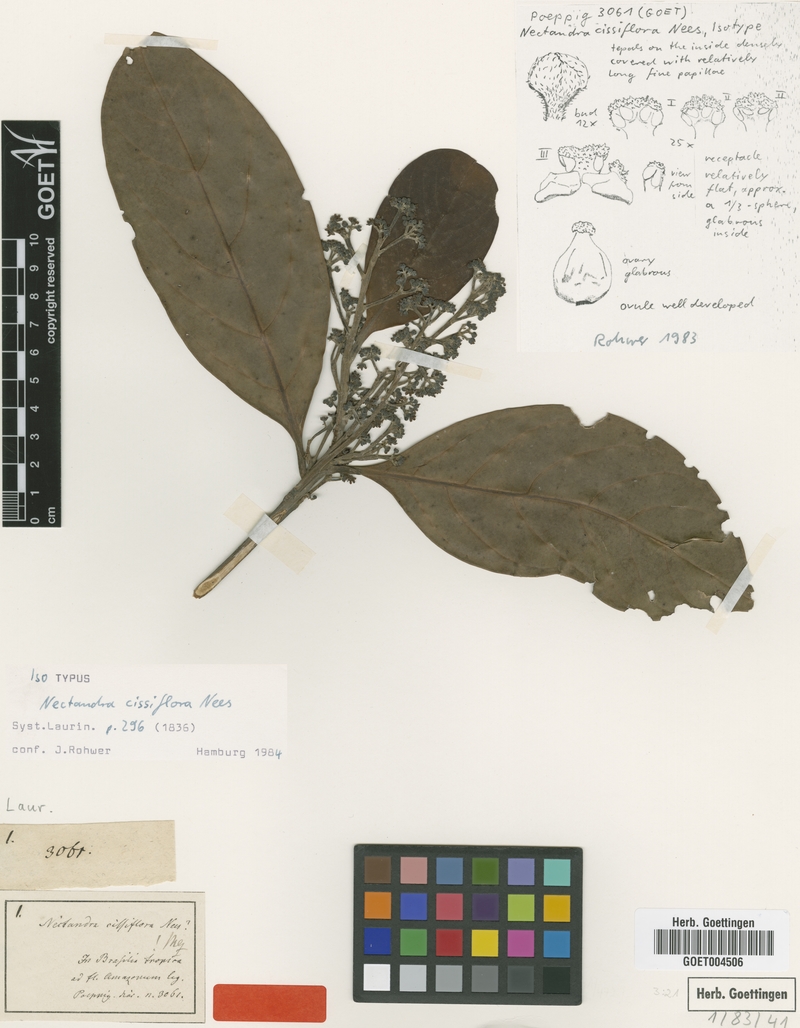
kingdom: Plantae
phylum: Tracheophyta
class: Magnoliopsida
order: Laurales
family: Lauraceae
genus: Nectandra
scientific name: Nectandra cissiflora
